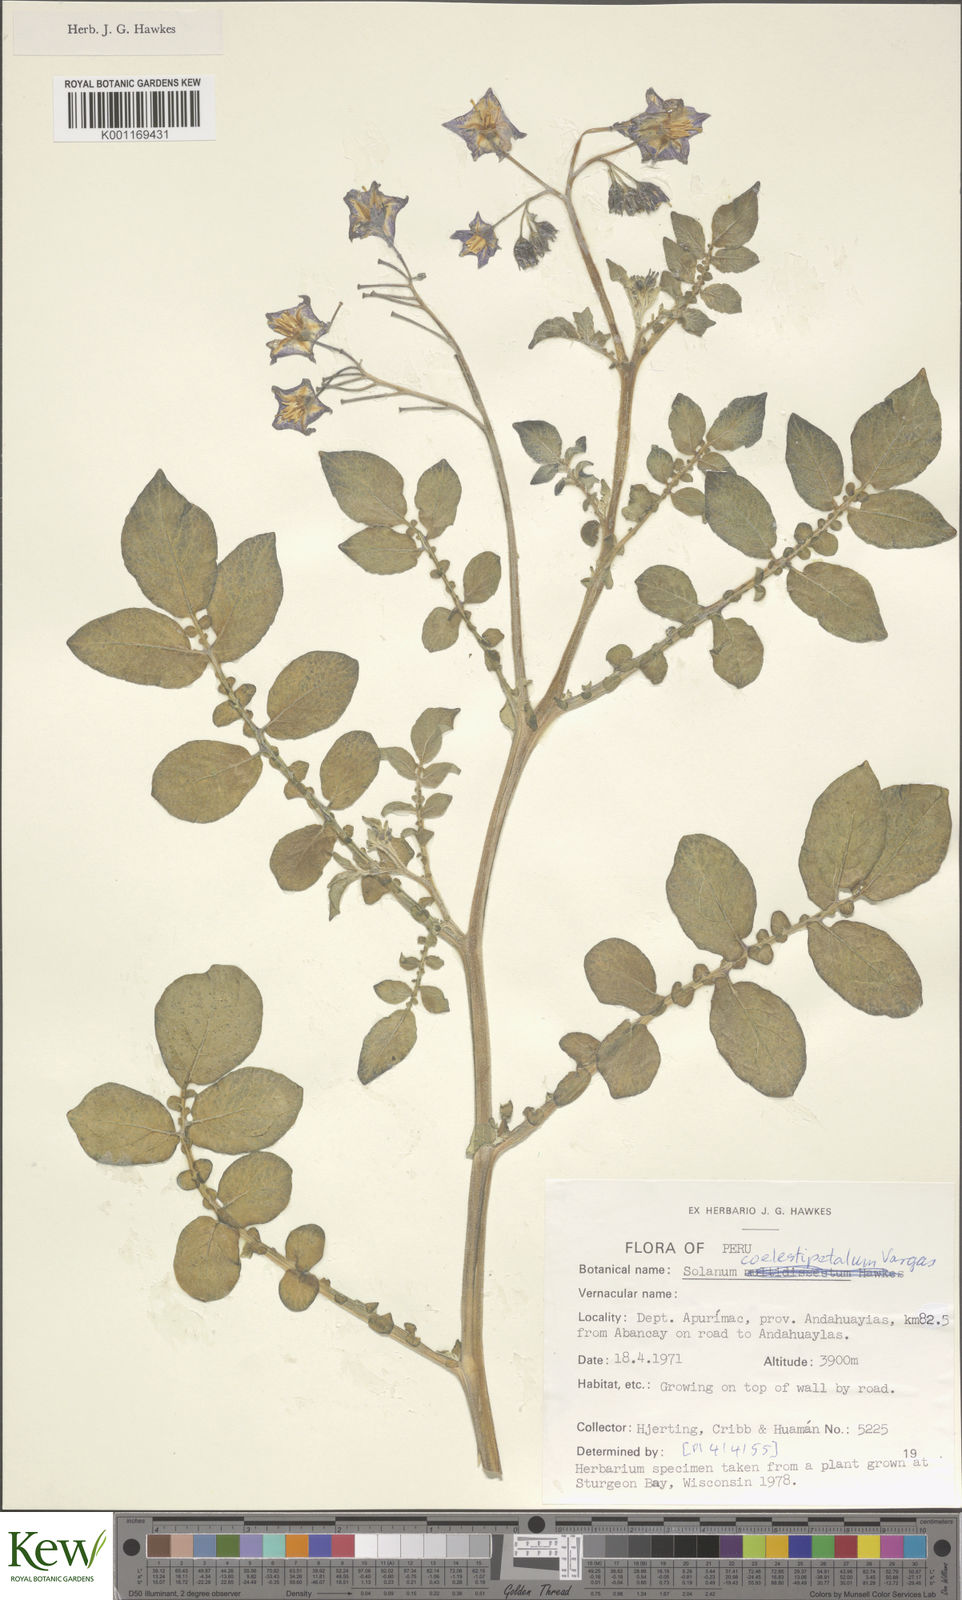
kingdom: Plantae
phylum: Tracheophyta
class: Magnoliopsida
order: Solanales
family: Solanaceae
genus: Solanum
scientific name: Solanum brevicaule
